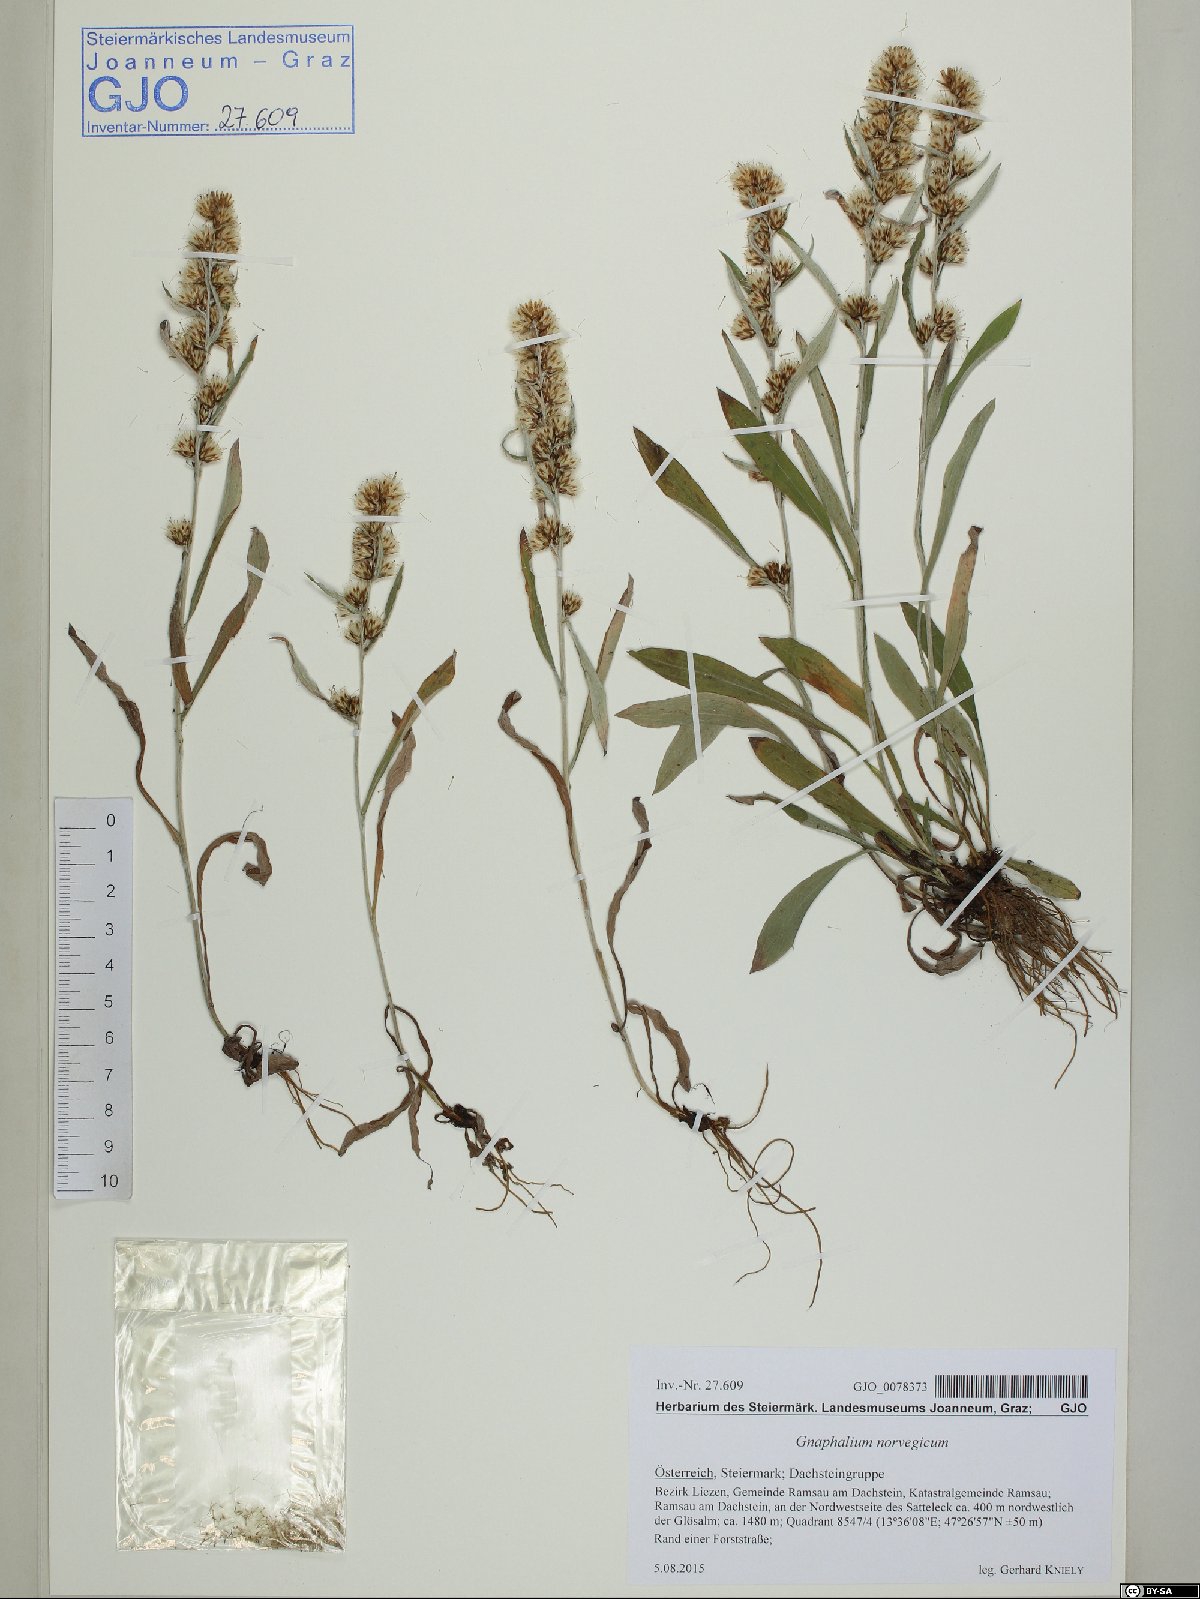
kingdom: Plantae
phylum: Tracheophyta
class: Magnoliopsida
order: Asterales
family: Asteraceae
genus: Omalotheca
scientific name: Omalotheca norvegica
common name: Norwegian arctic-cudweed
